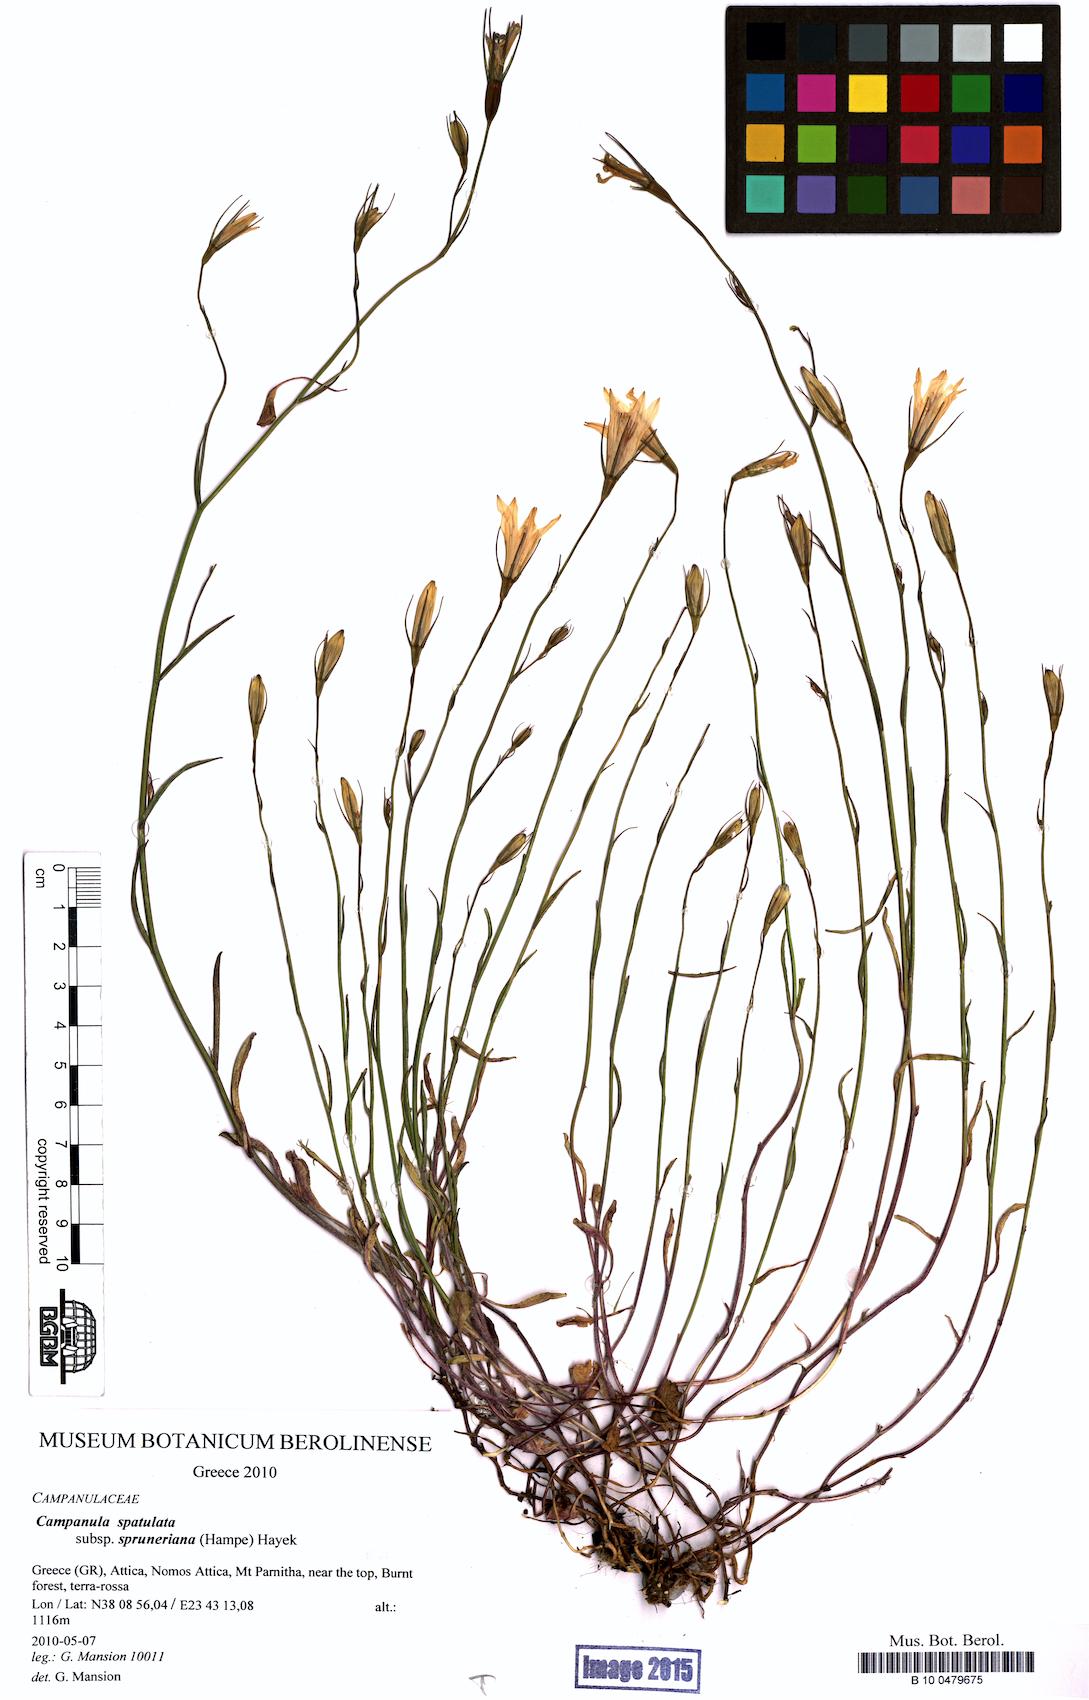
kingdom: Plantae
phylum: Tracheophyta
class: Magnoliopsida
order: Asterales
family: Campanulaceae
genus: Campanula
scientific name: Campanula spatulata
